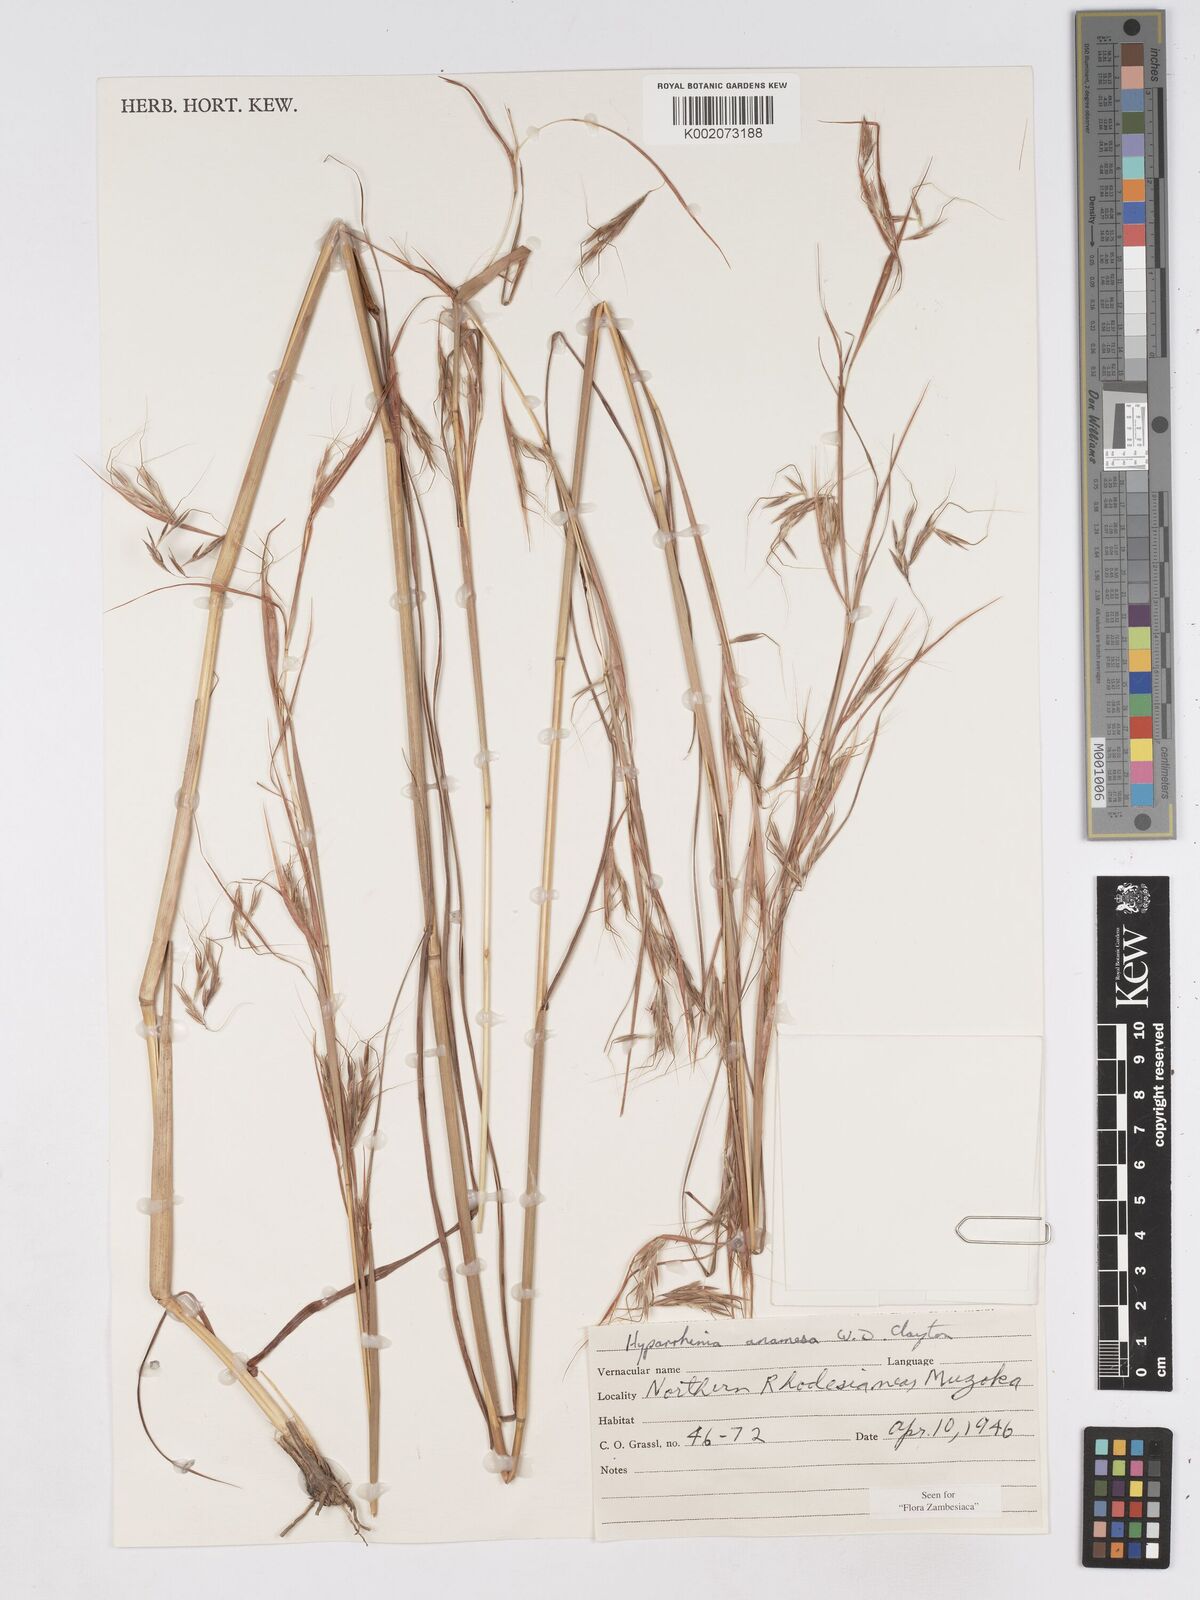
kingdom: Plantae
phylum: Tracheophyta
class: Liliopsida
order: Poales
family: Poaceae
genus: Hyparrhenia
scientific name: Hyparrhenia anamesa
